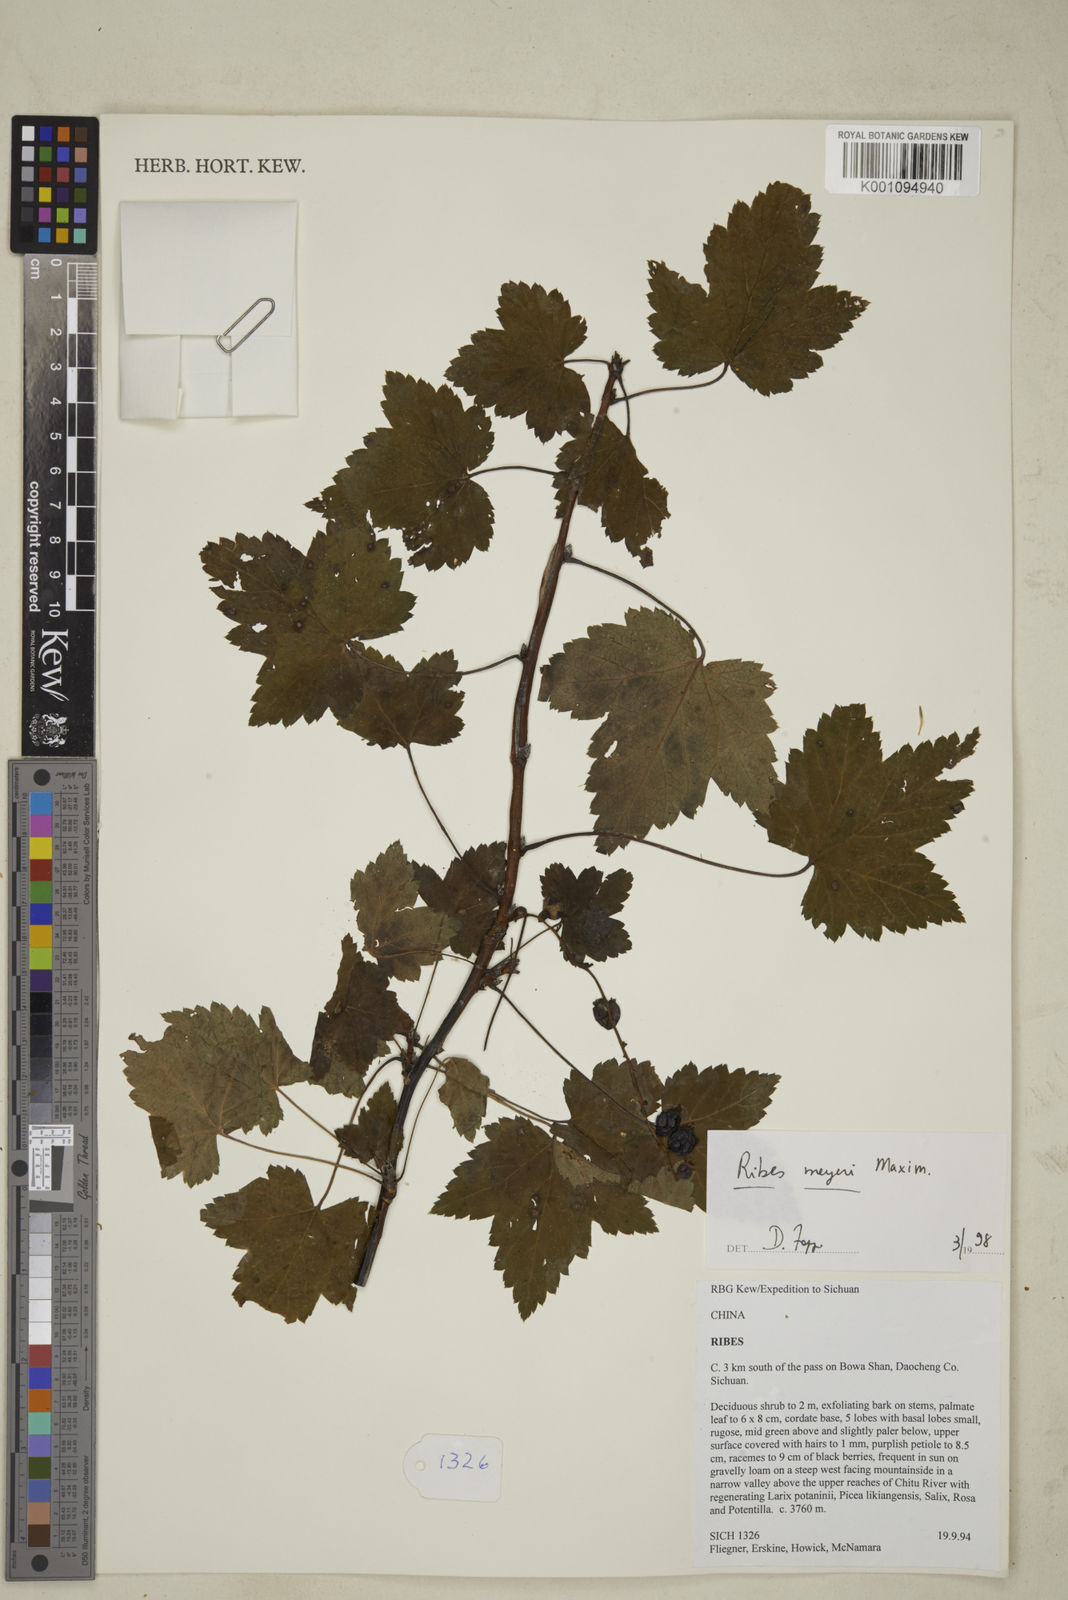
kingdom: Plantae
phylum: Tracheophyta
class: Magnoliopsida
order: Saxifragales
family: Grossulariaceae
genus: Ribes
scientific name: Ribes meyeri
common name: Meyer's currant
